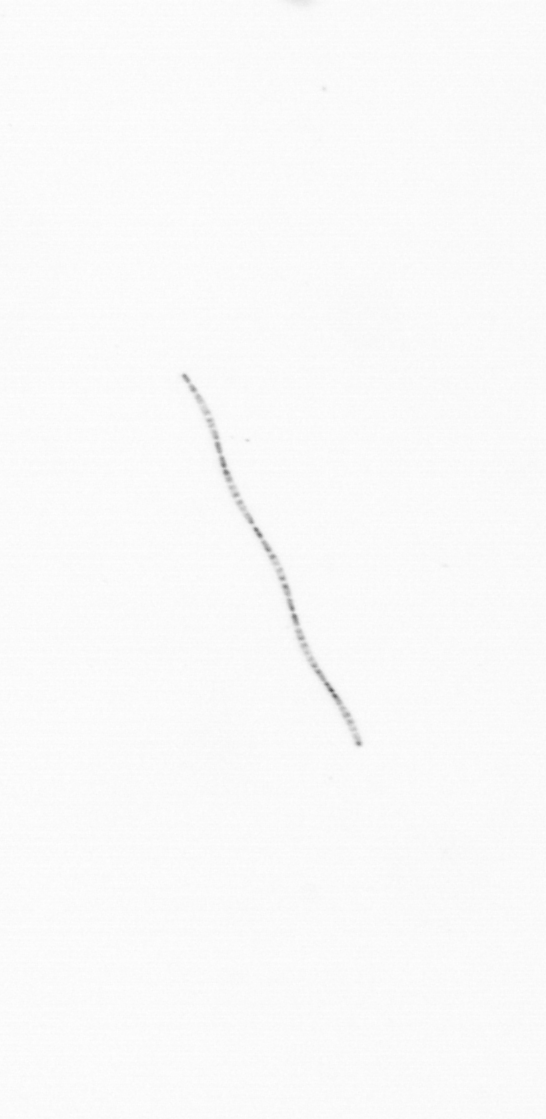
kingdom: Chromista
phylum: Ochrophyta
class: Bacillariophyceae
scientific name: Bacillariophyceae
